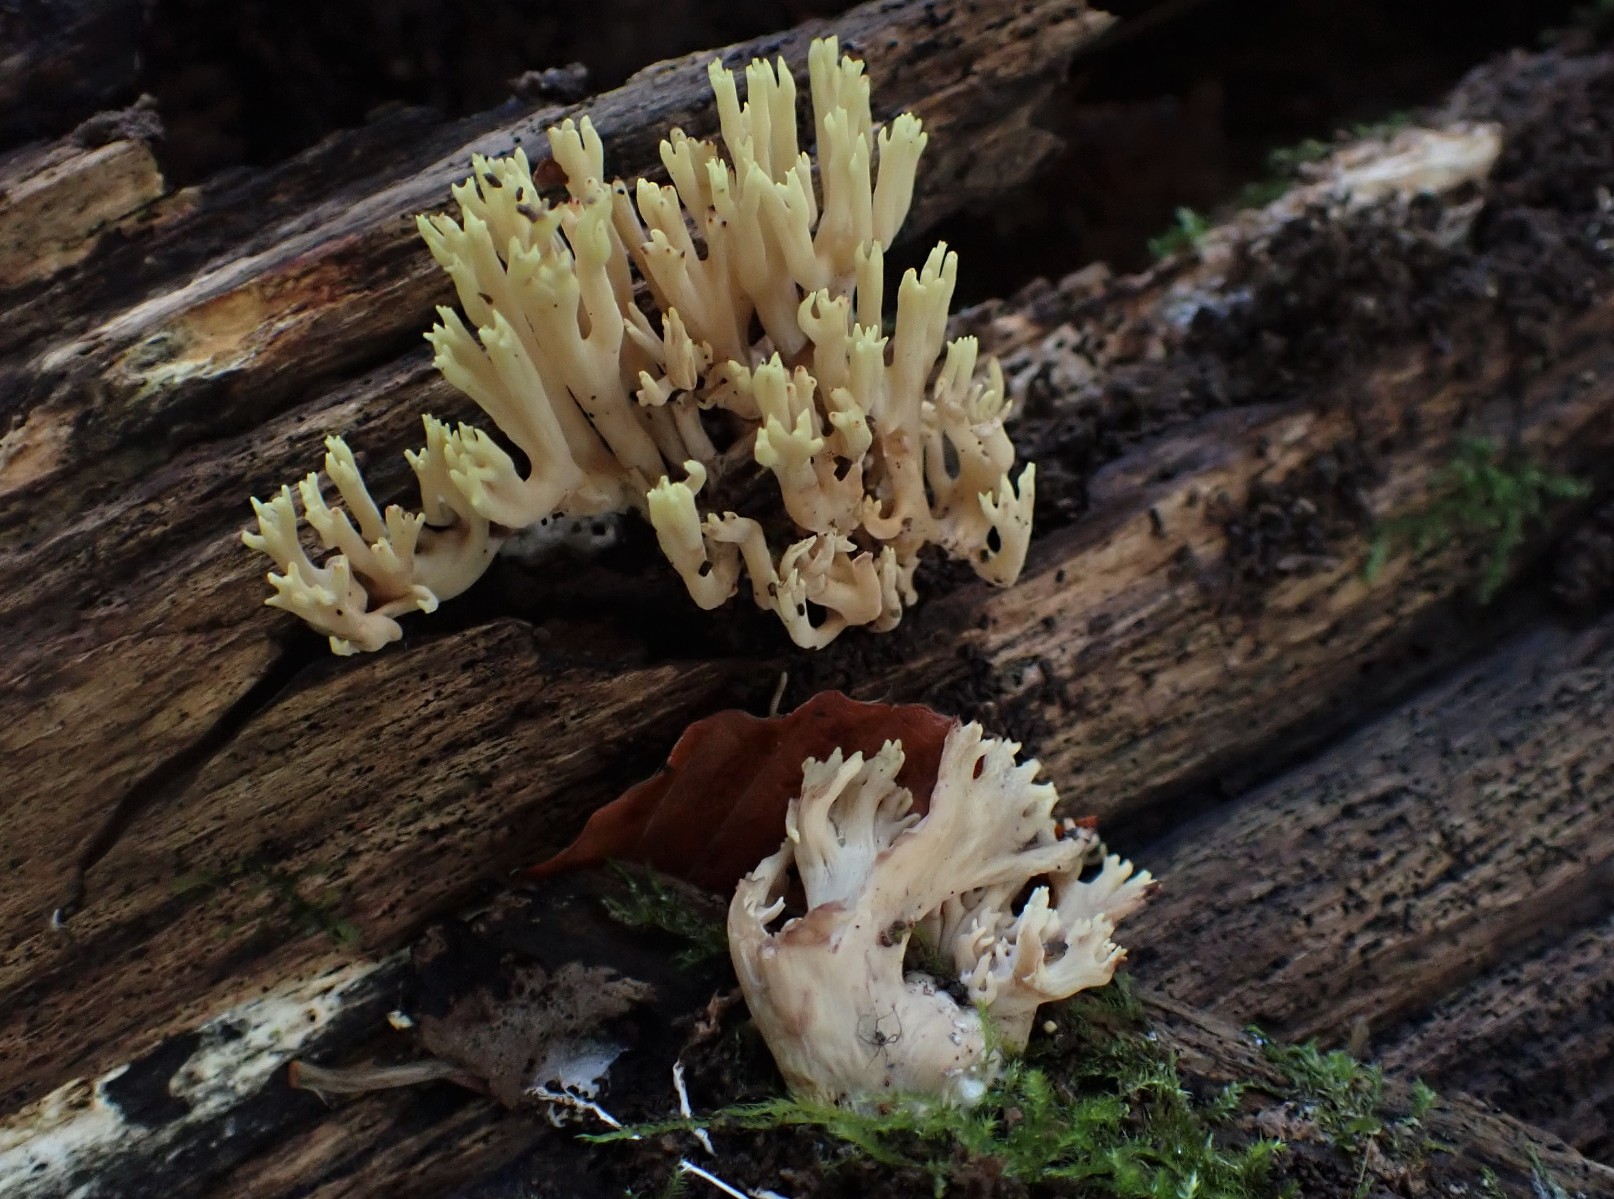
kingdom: Fungi
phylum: Basidiomycota
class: Agaricomycetes
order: Gomphales
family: Gomphaceae
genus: Ramaria
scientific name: Ramaria stricta
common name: rank koralsvamp
